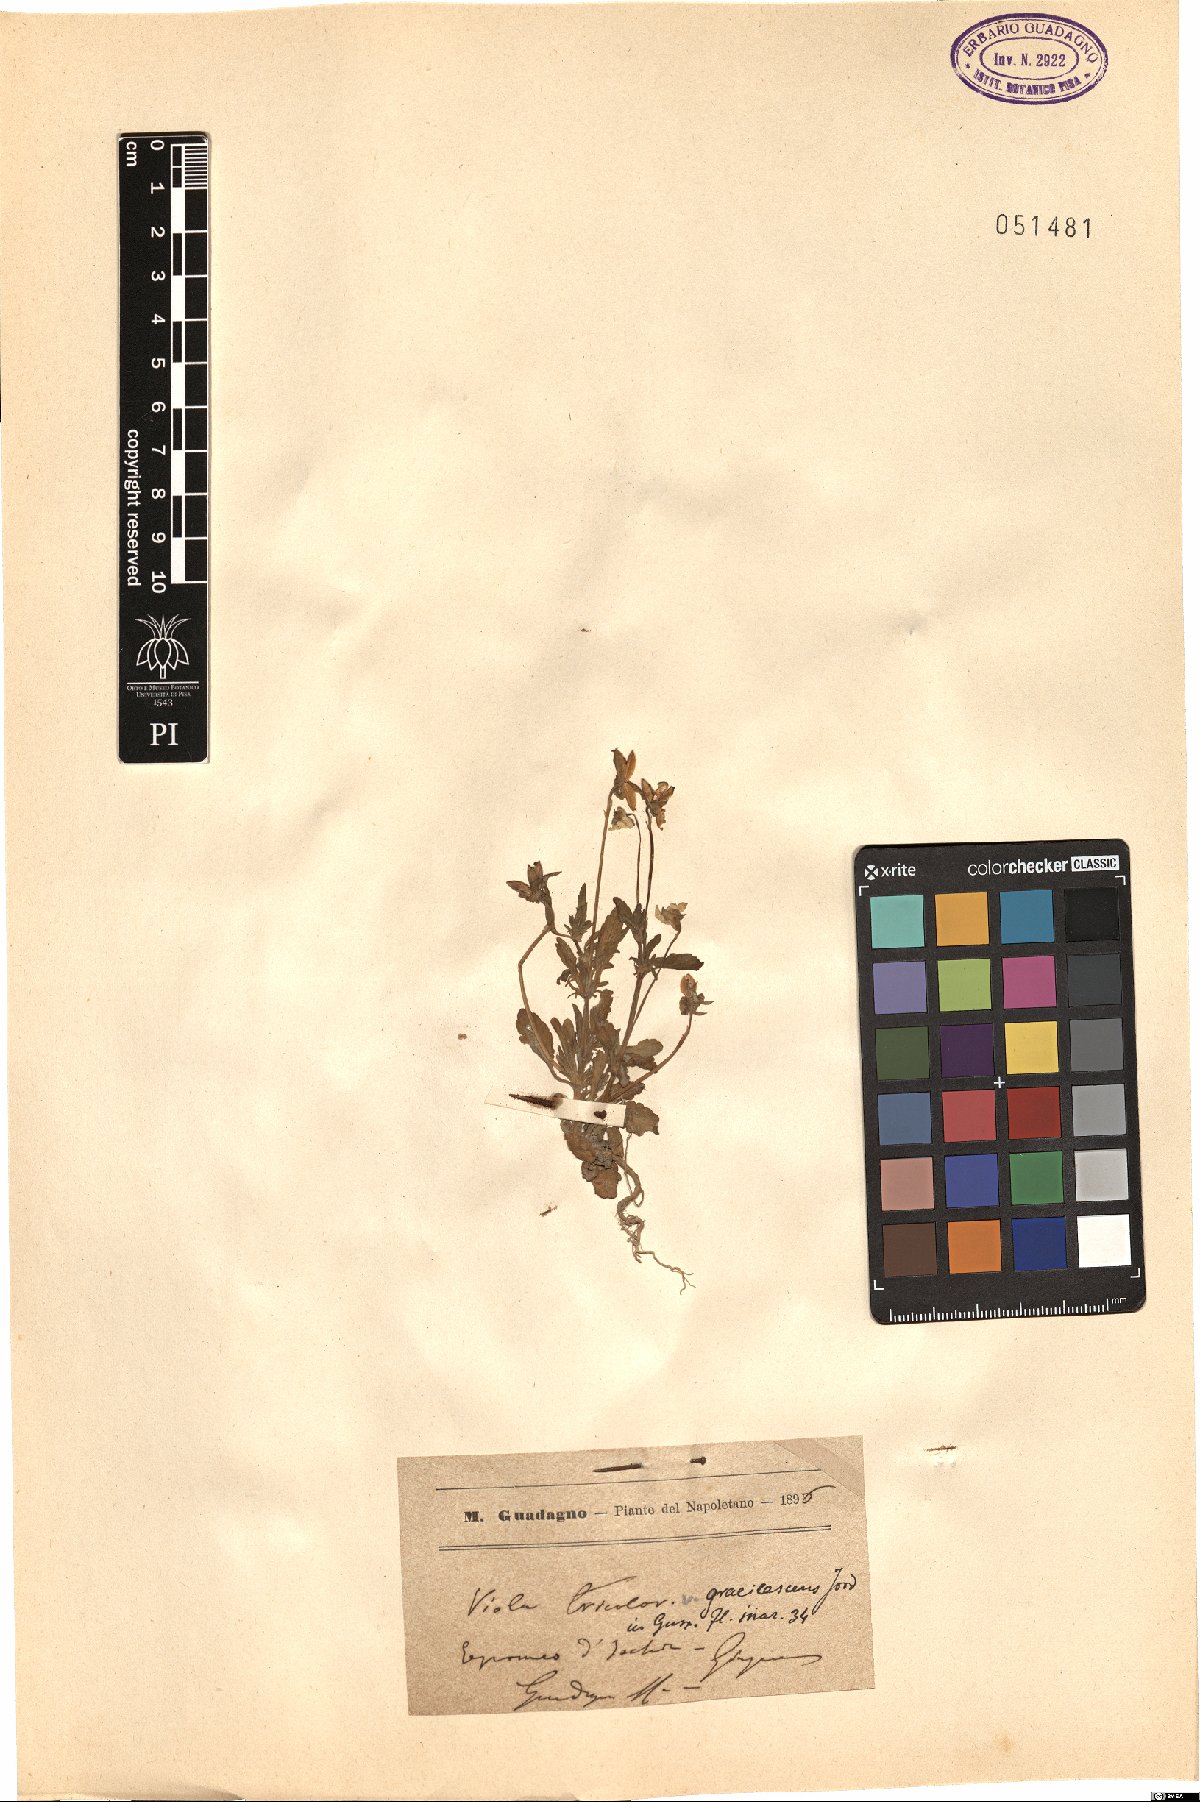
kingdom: Plantae
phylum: Tracheophyta
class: Magnoliopsida
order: Malpighiales
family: Violaceae
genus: Viola
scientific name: Viola tricolor
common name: Pansy
